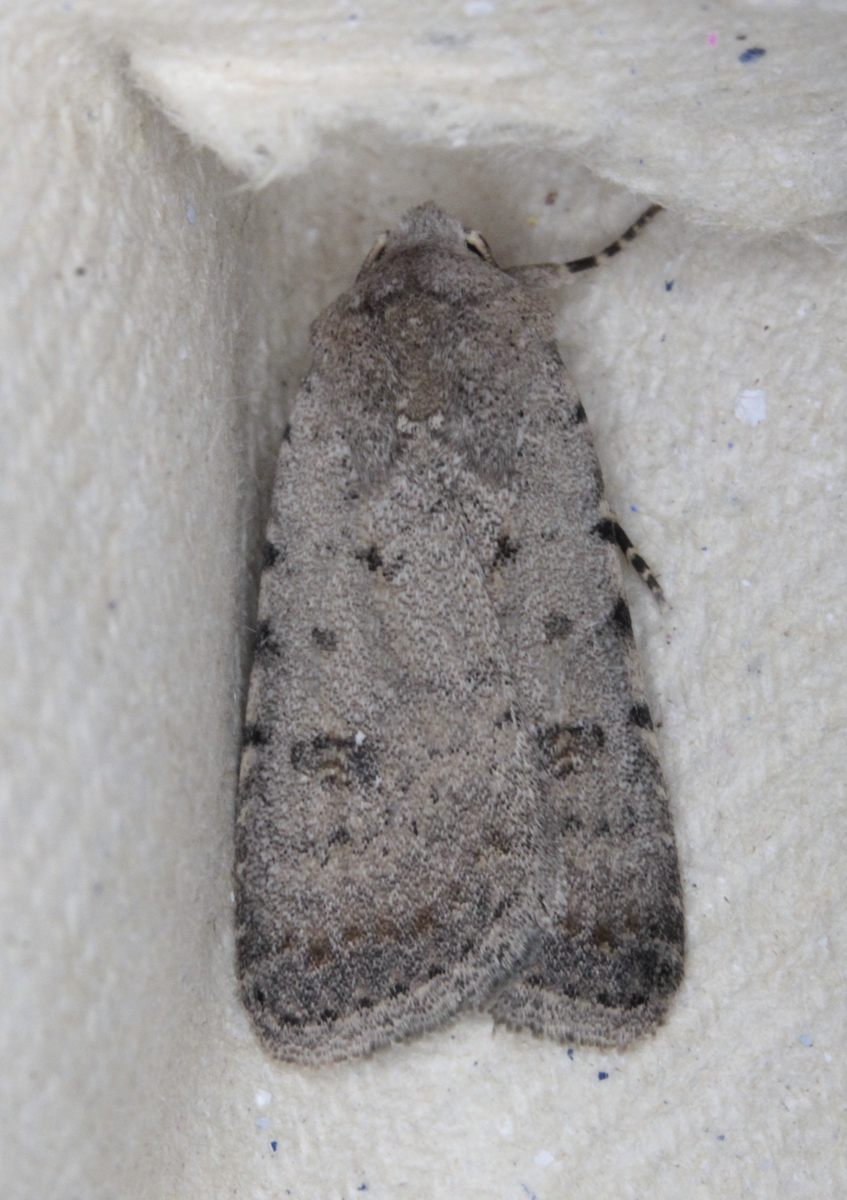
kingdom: Animalia
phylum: Arthropoda
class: Insecta
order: Lepidoptera
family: Noctuidae
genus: Caradrina
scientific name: Caradrina clavipalpis
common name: Pale mottled willow
